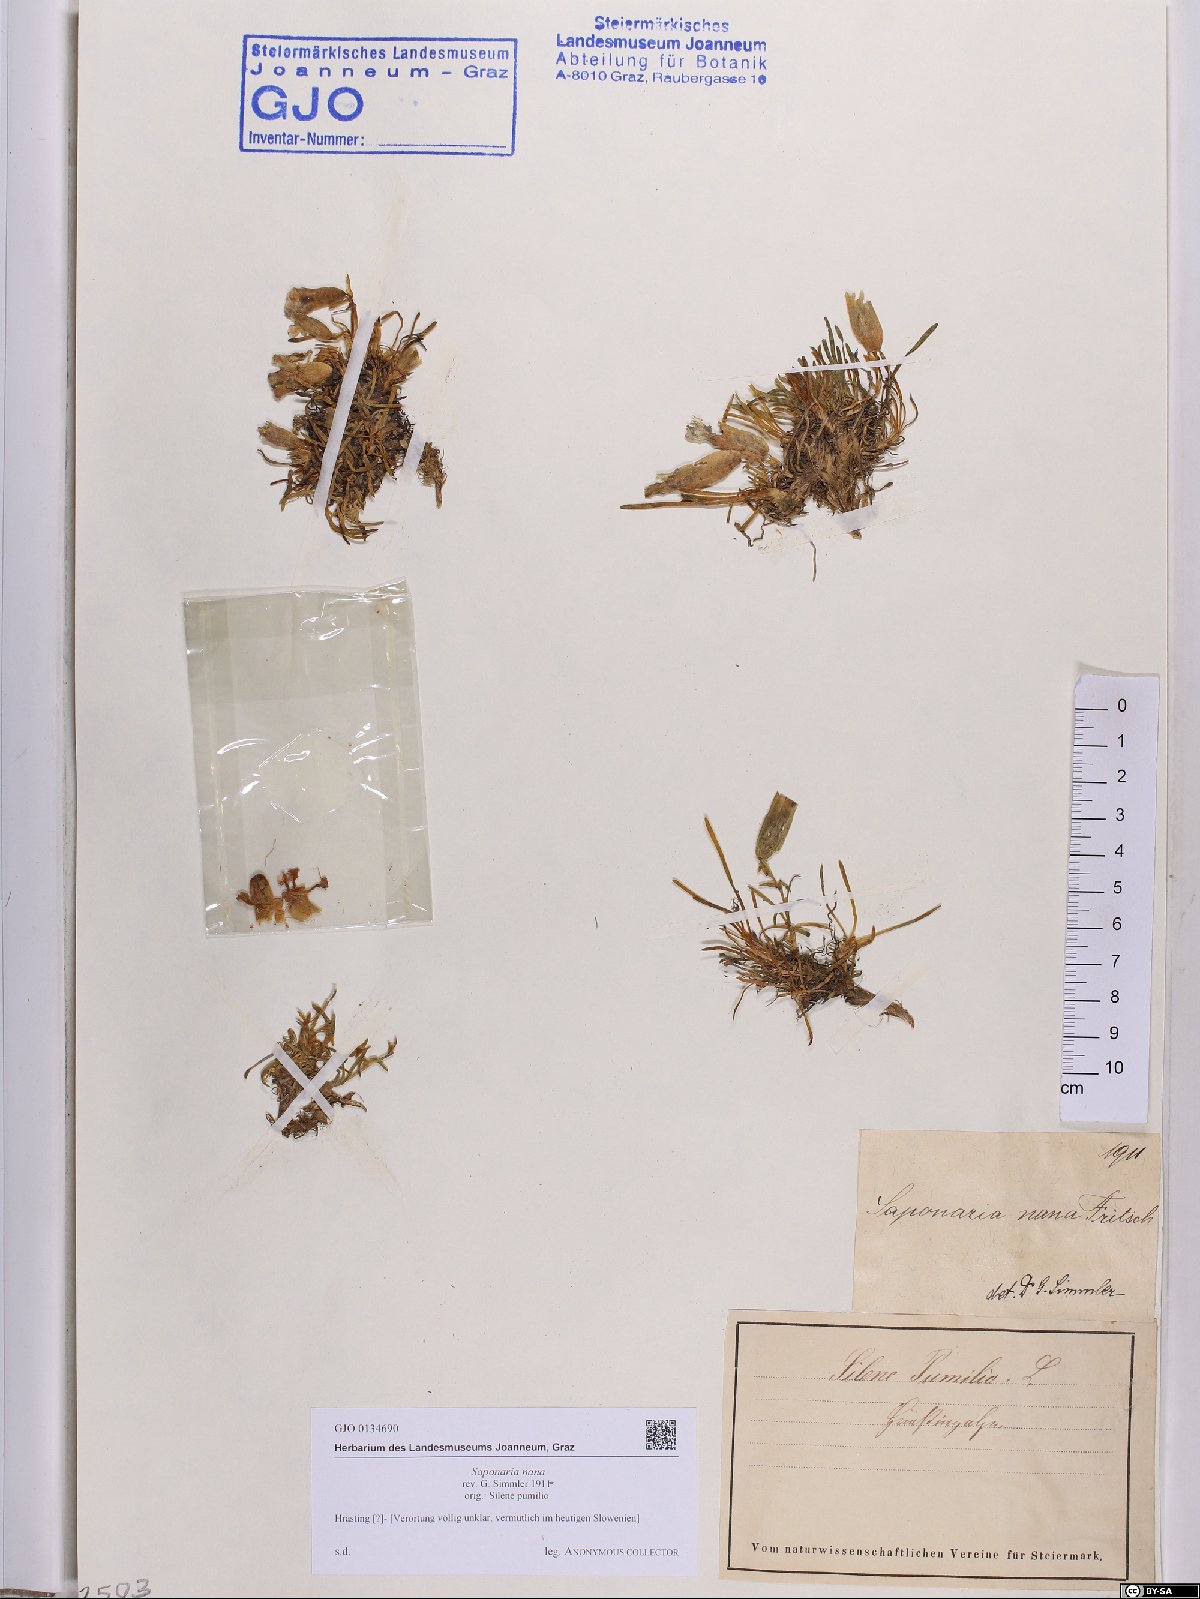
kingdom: Plantae
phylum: Tracheophyta
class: Magnoliopsida
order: Caryophyllales
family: Caryophyllaceae
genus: Saponaria
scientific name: Saponaria pumila
